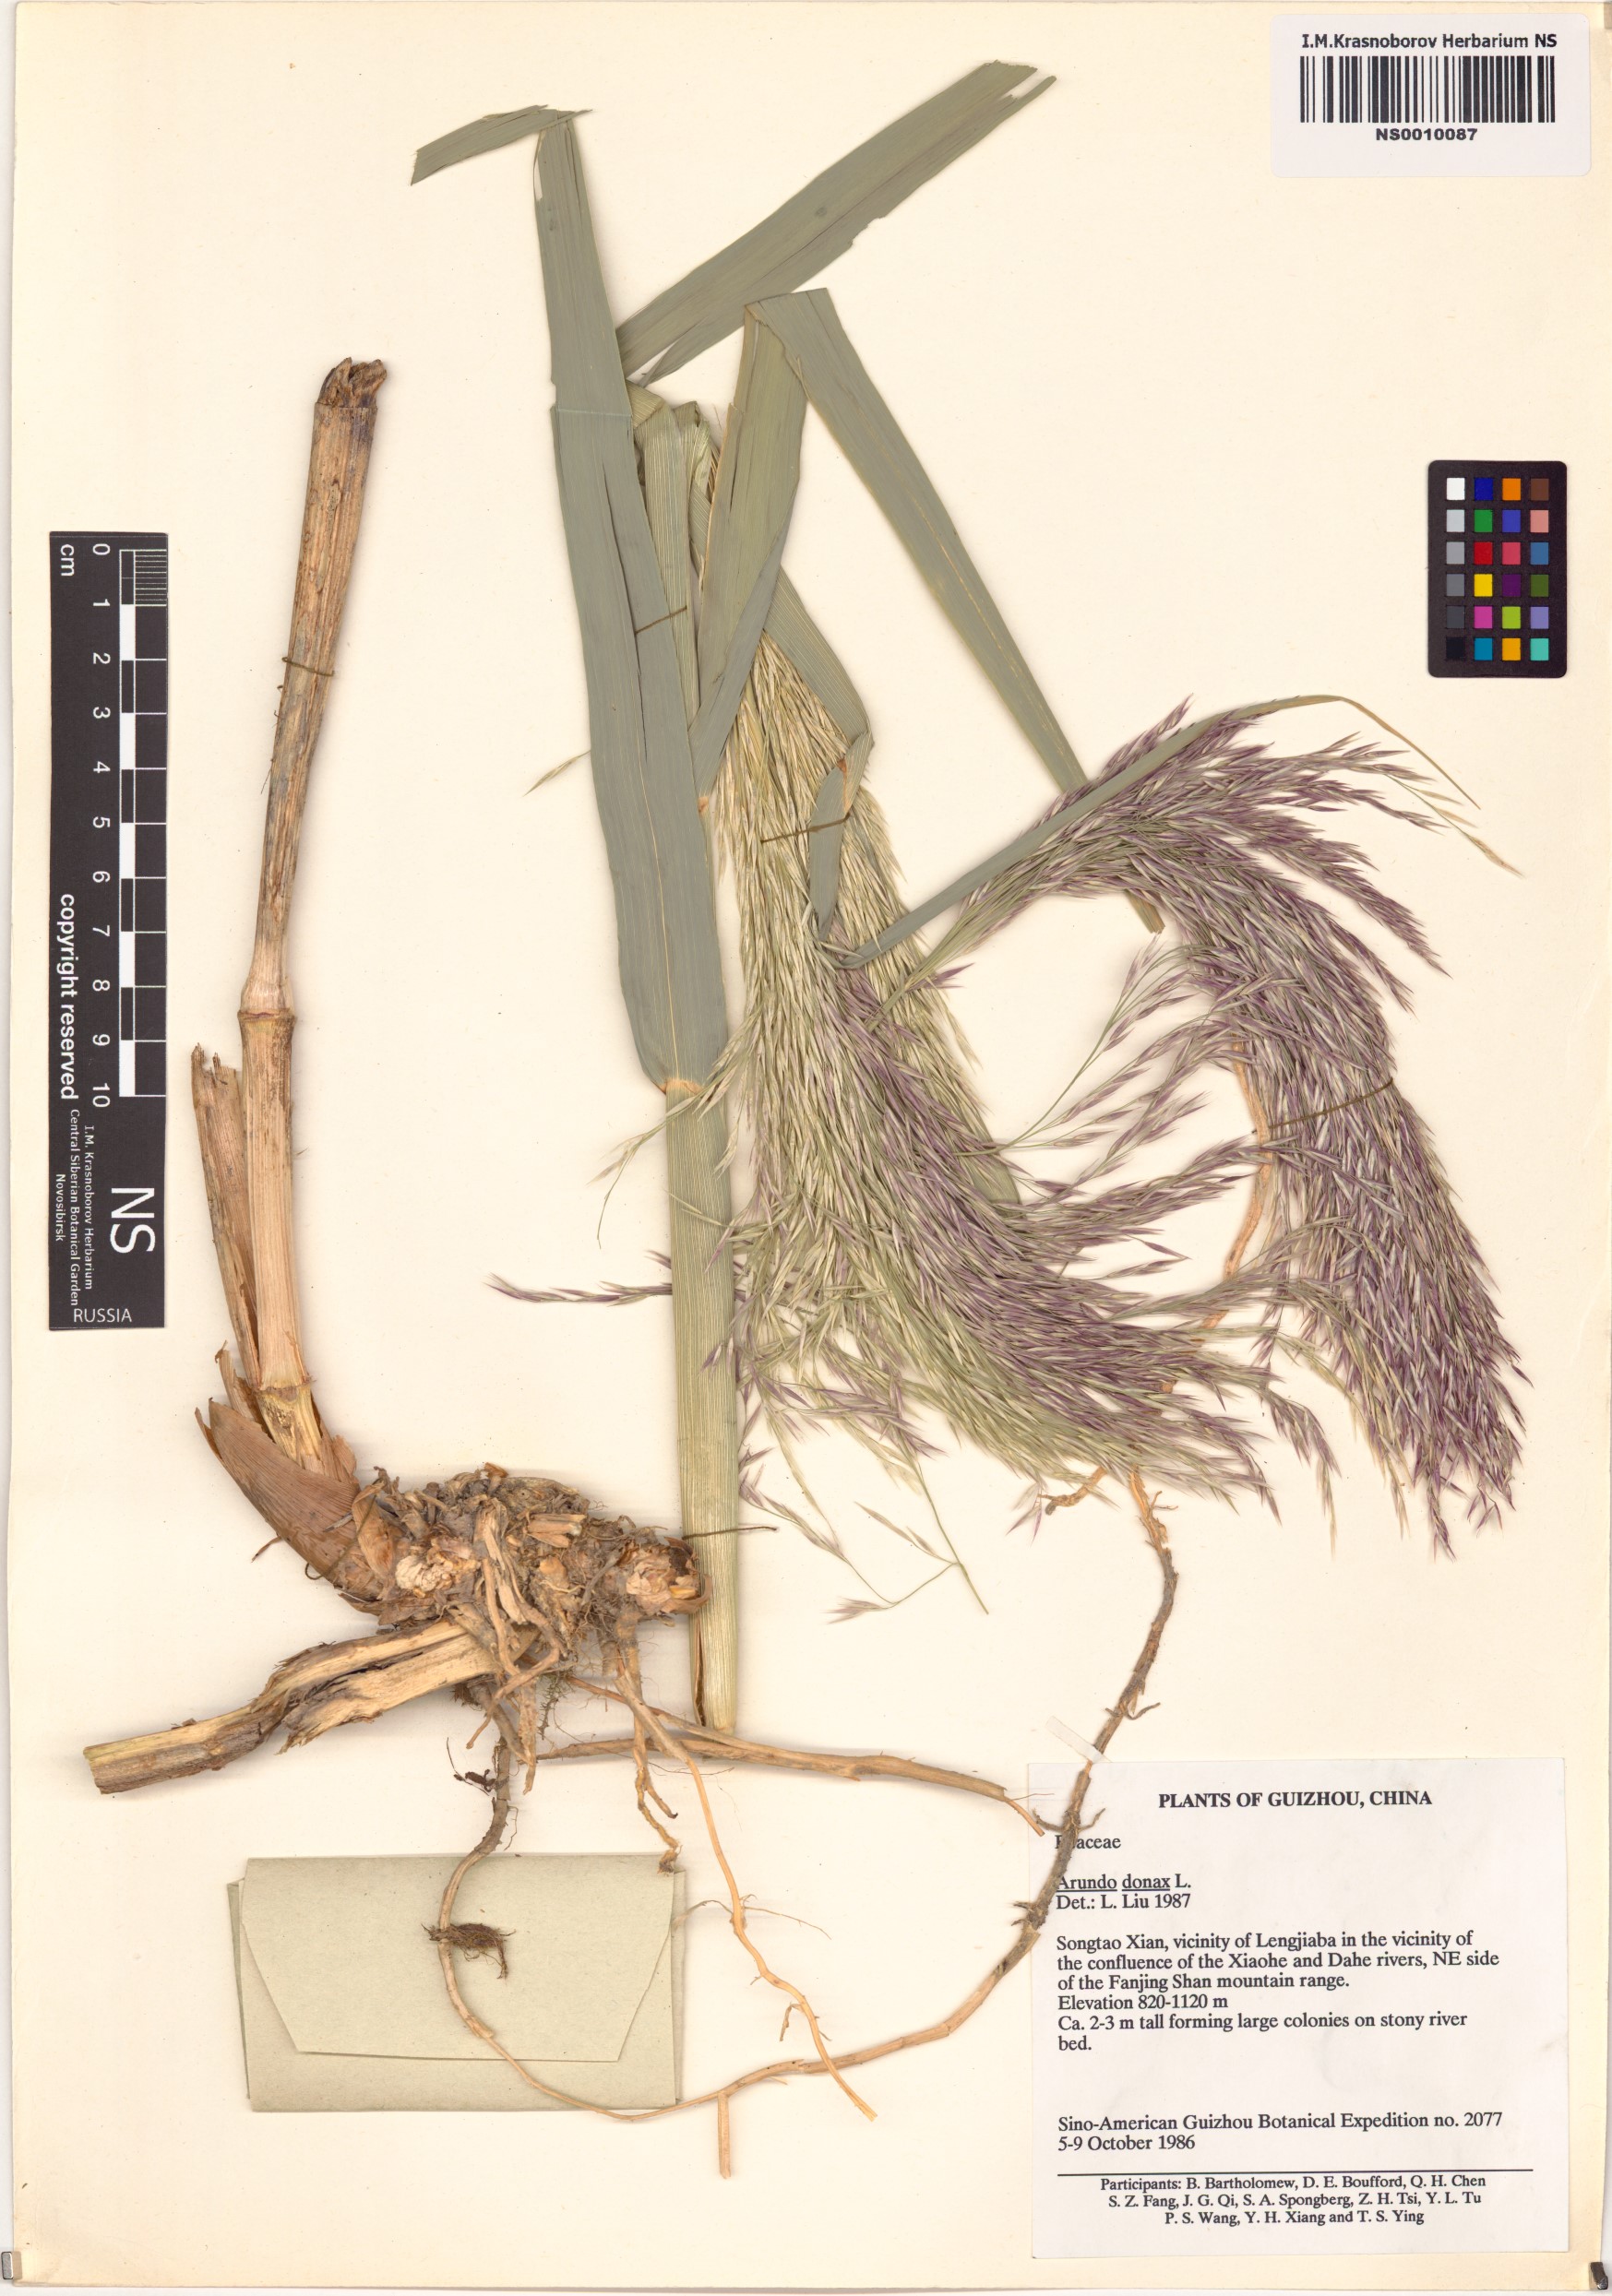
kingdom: Plantae
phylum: Tracheophyta
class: Liliopsida
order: Poales
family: Poaceae
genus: Arundo
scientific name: Arundo donax
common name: Giant reed
